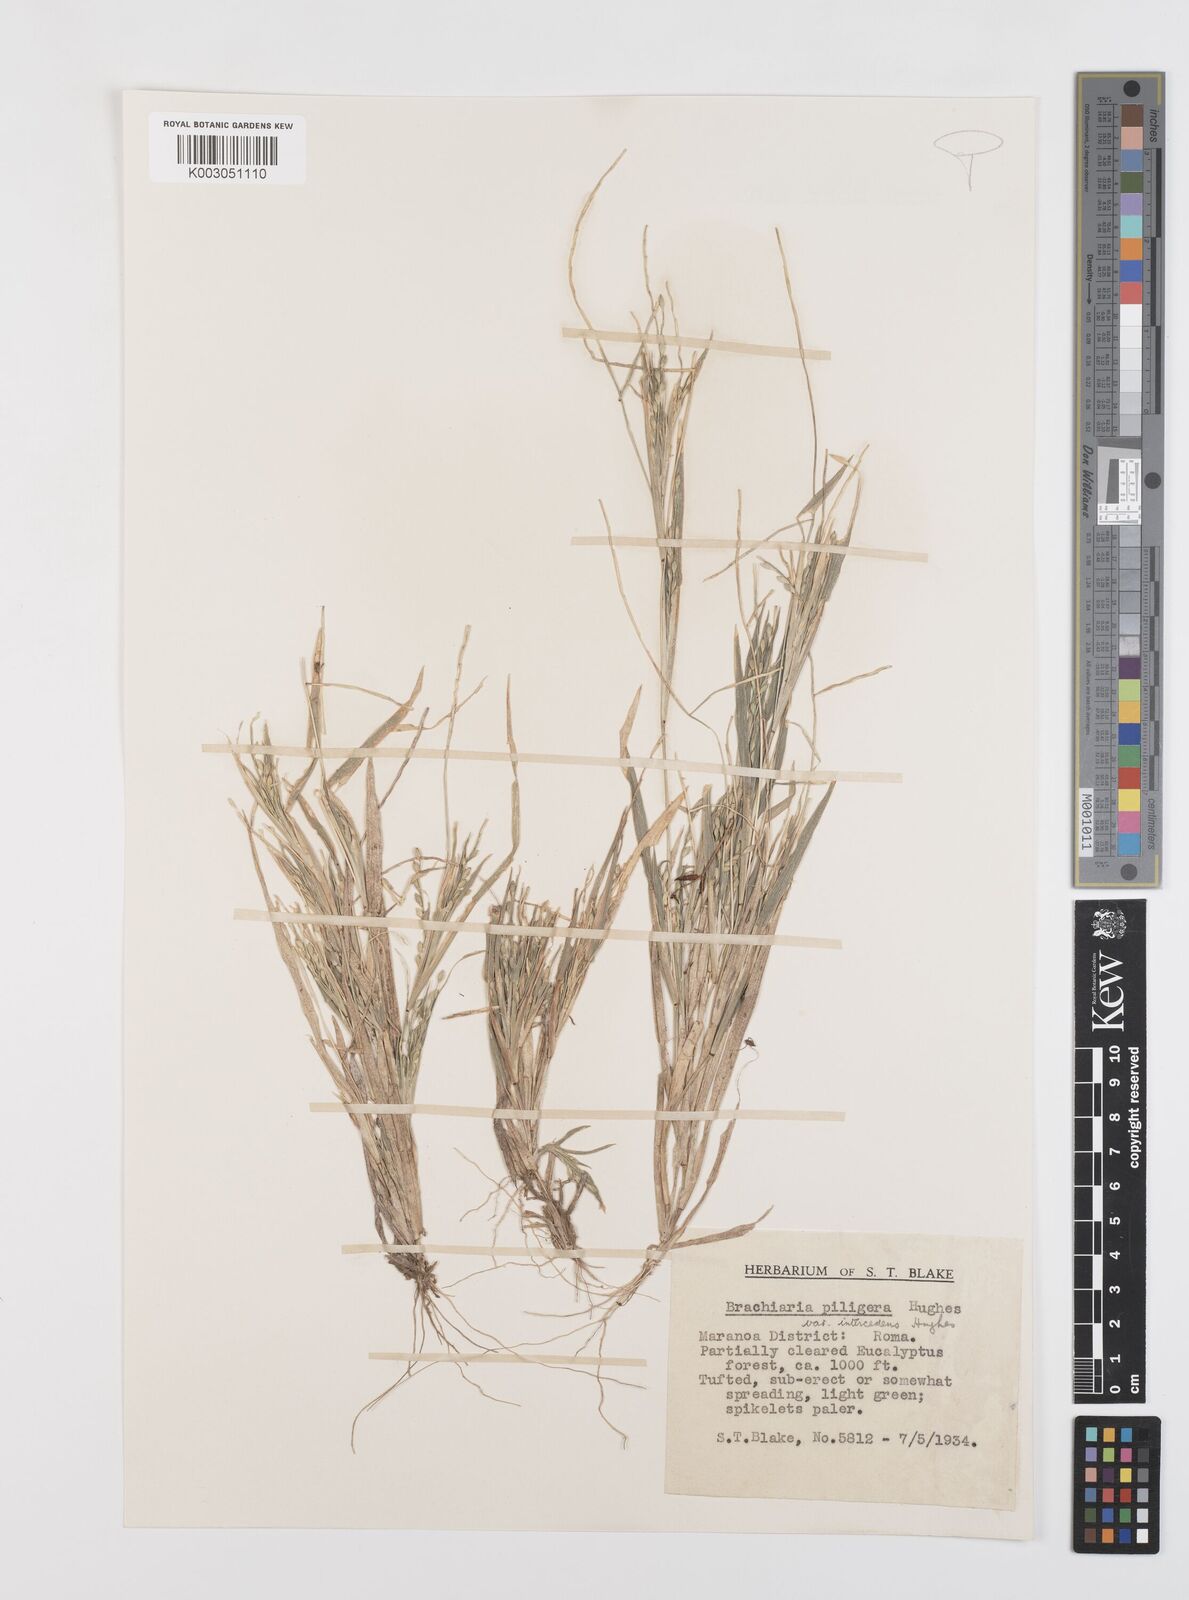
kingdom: Plantae
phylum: Tracheophyta
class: Liliopsida
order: Poales
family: Poaceae
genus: Urochloa
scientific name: Urochloa piligera
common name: Wattle signalgrass
